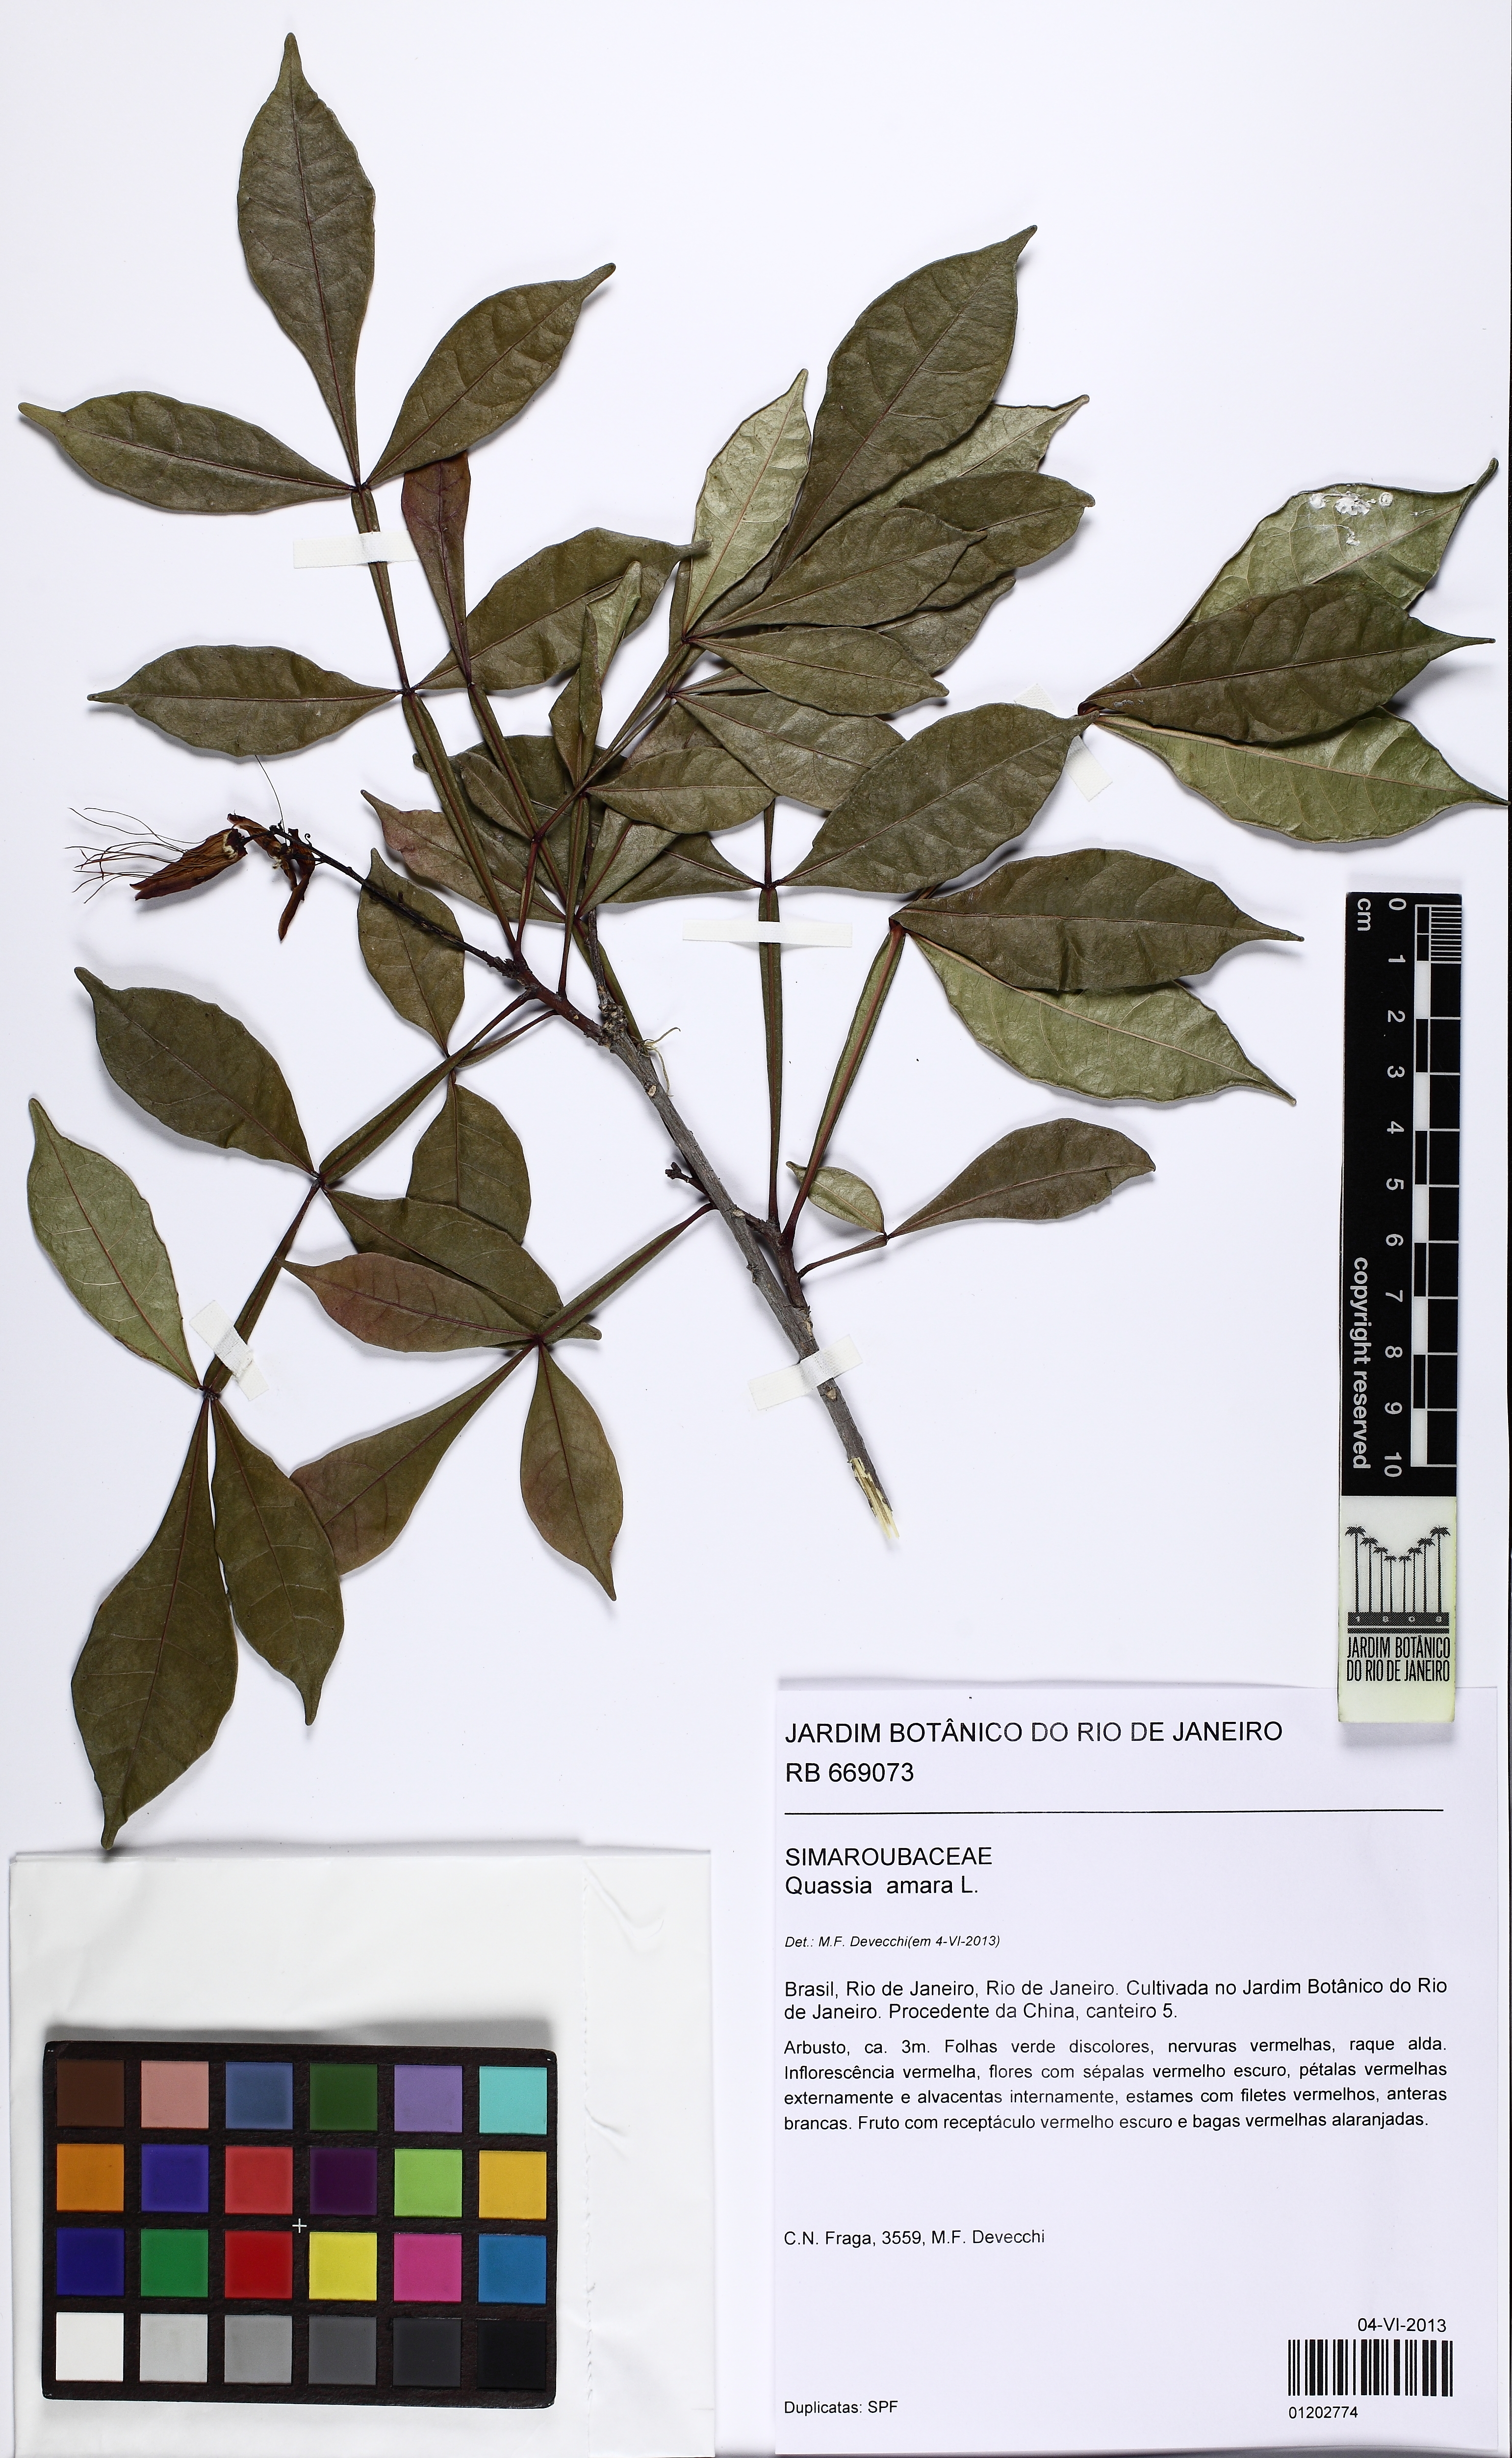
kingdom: Plantae
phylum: Tracheophyta
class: Magnoliopsida
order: Sapindales
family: Simaroubaceae
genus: Quassia
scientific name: Quassia amara
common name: Quassia
